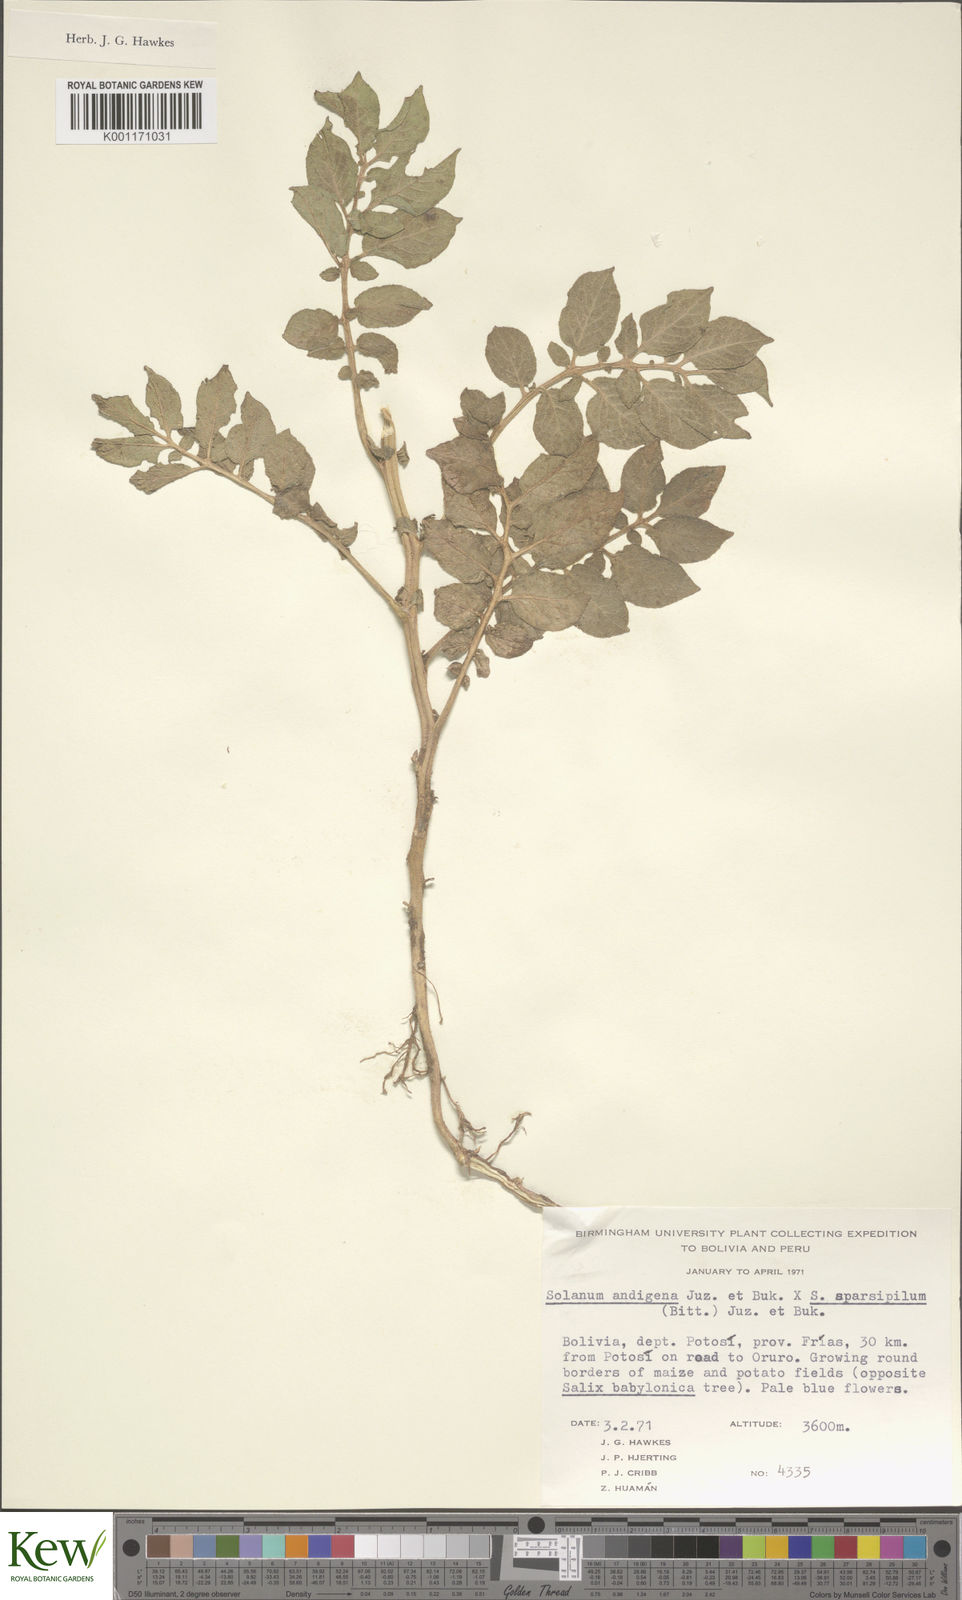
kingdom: Plantae
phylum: Tracheophyta
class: Magnoliopsida
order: Solanales
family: Solanaceae
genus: Solanum
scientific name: Solanum
